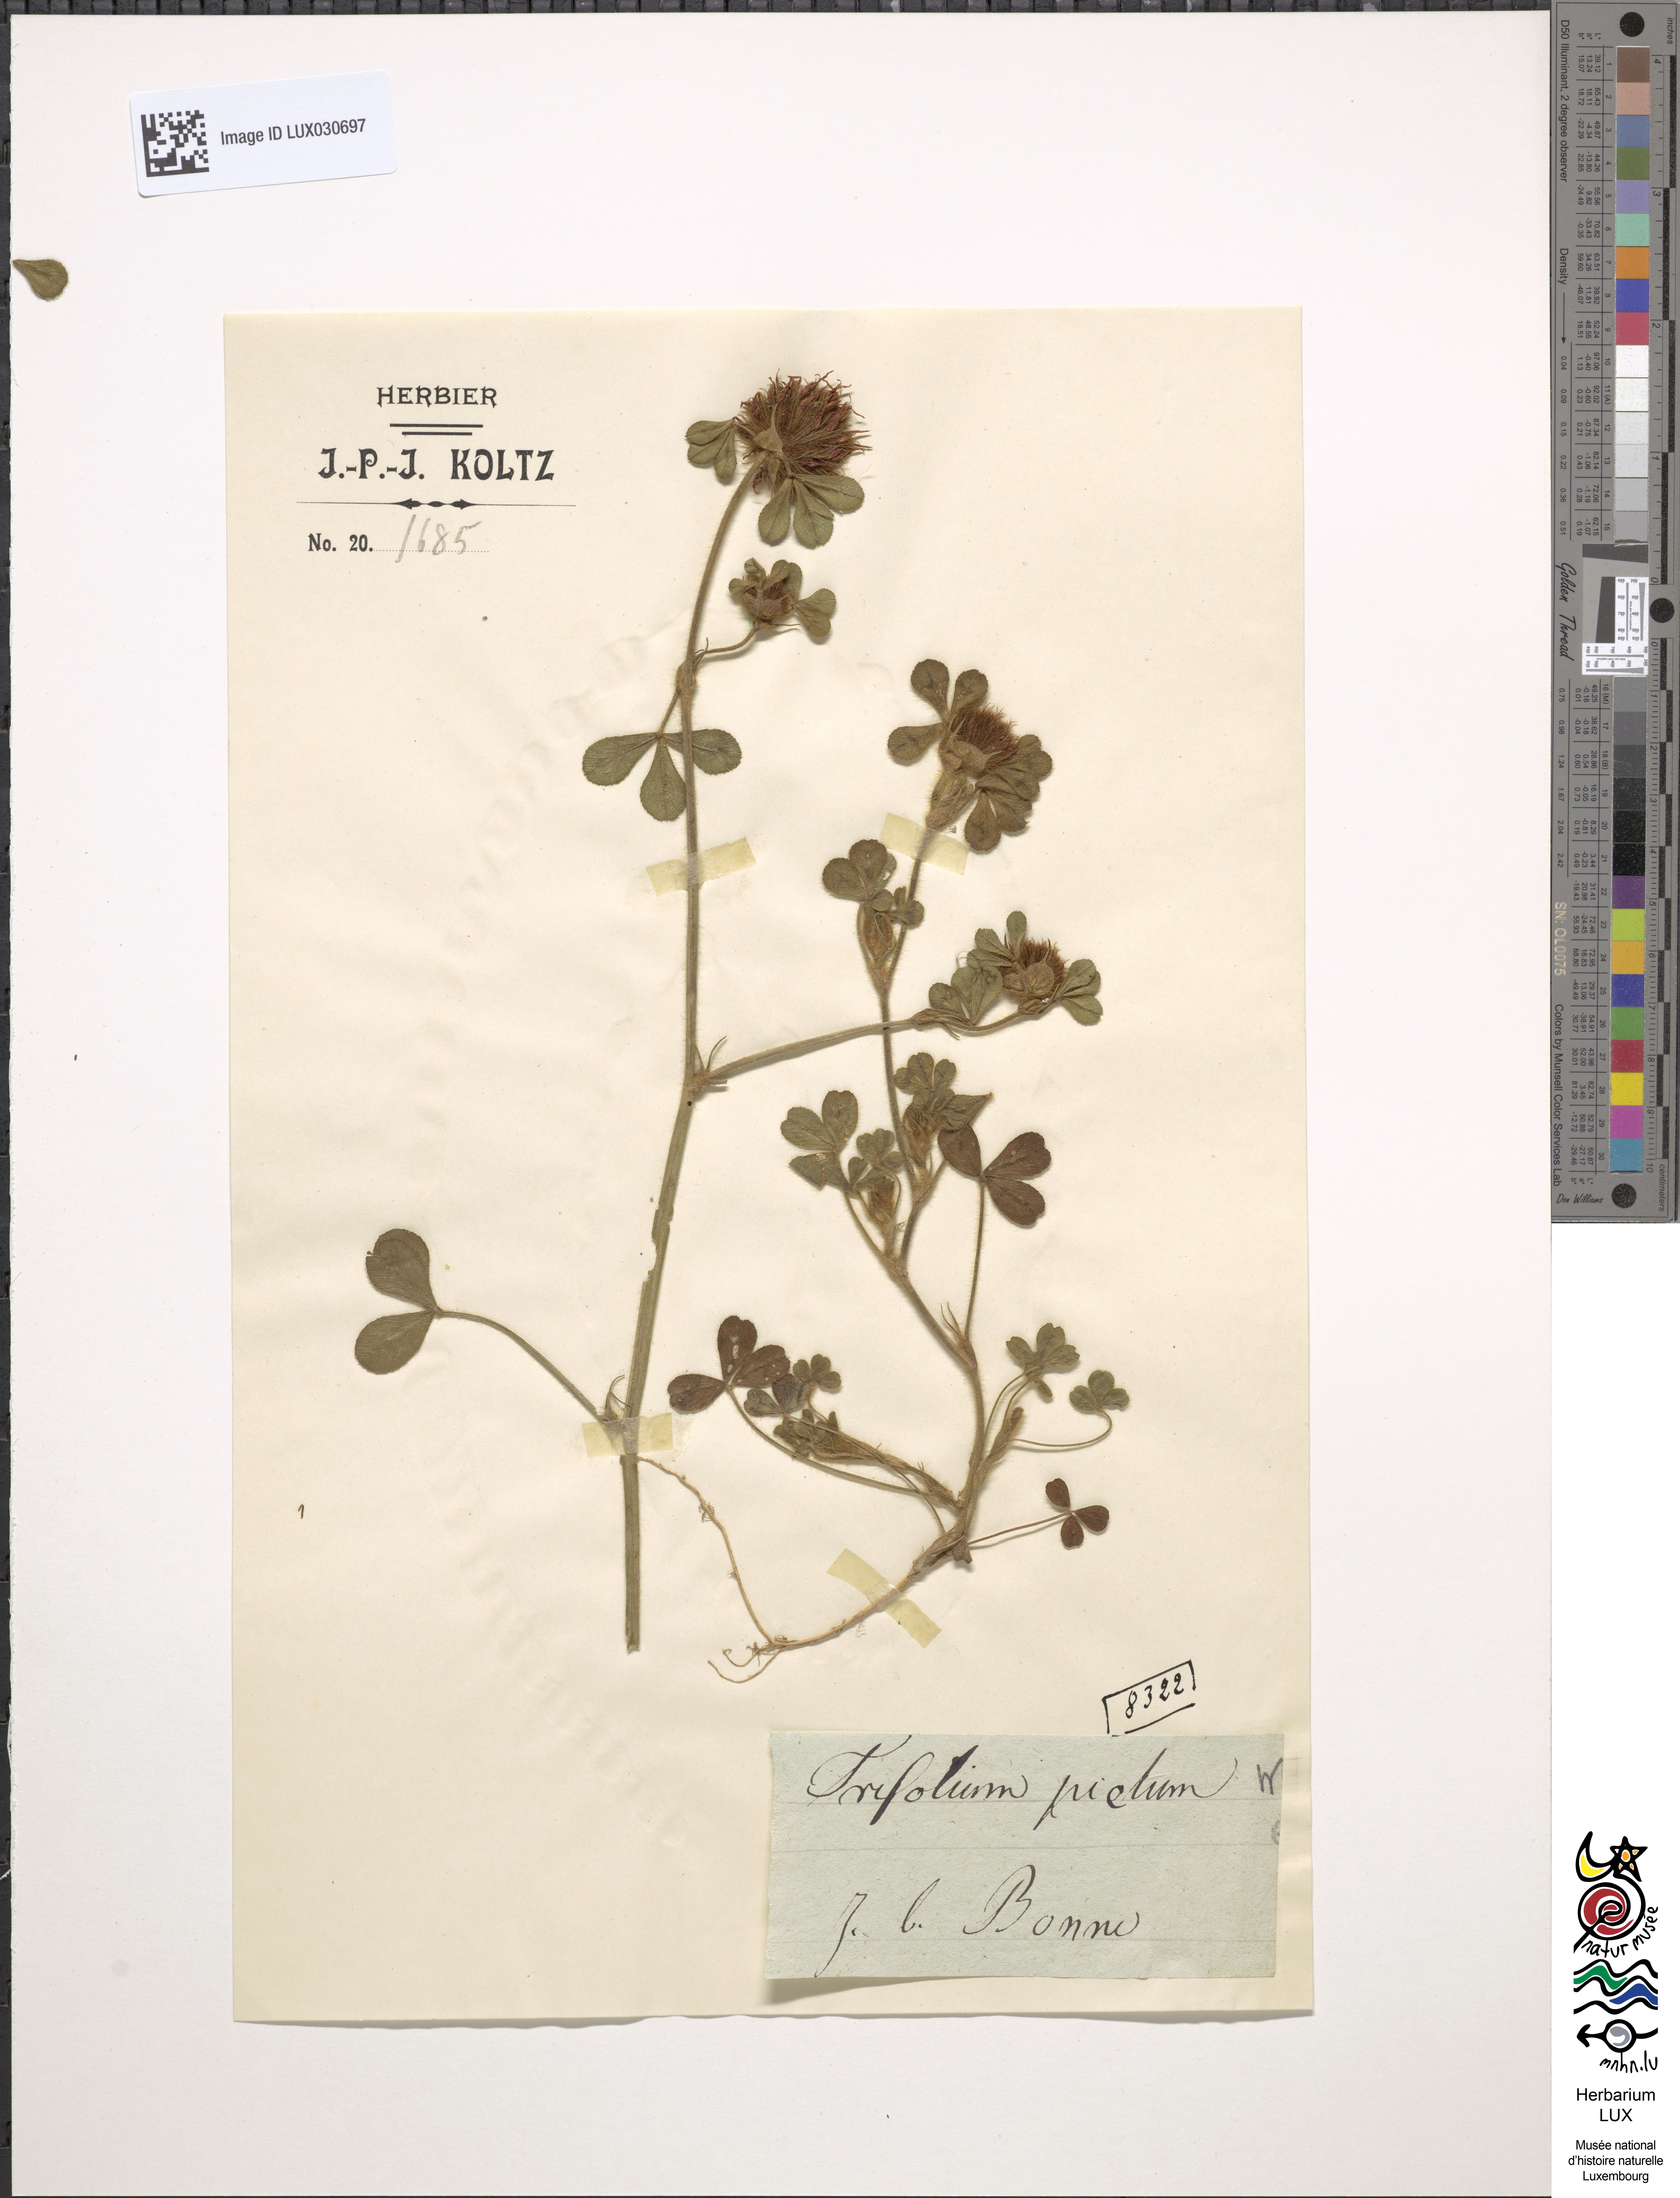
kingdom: Plantae
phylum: Tracheophyta
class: Magnoliopsida
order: Fabales
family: Fabaceae
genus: Trifolium
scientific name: Trifolium hirtum
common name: Rose clover
